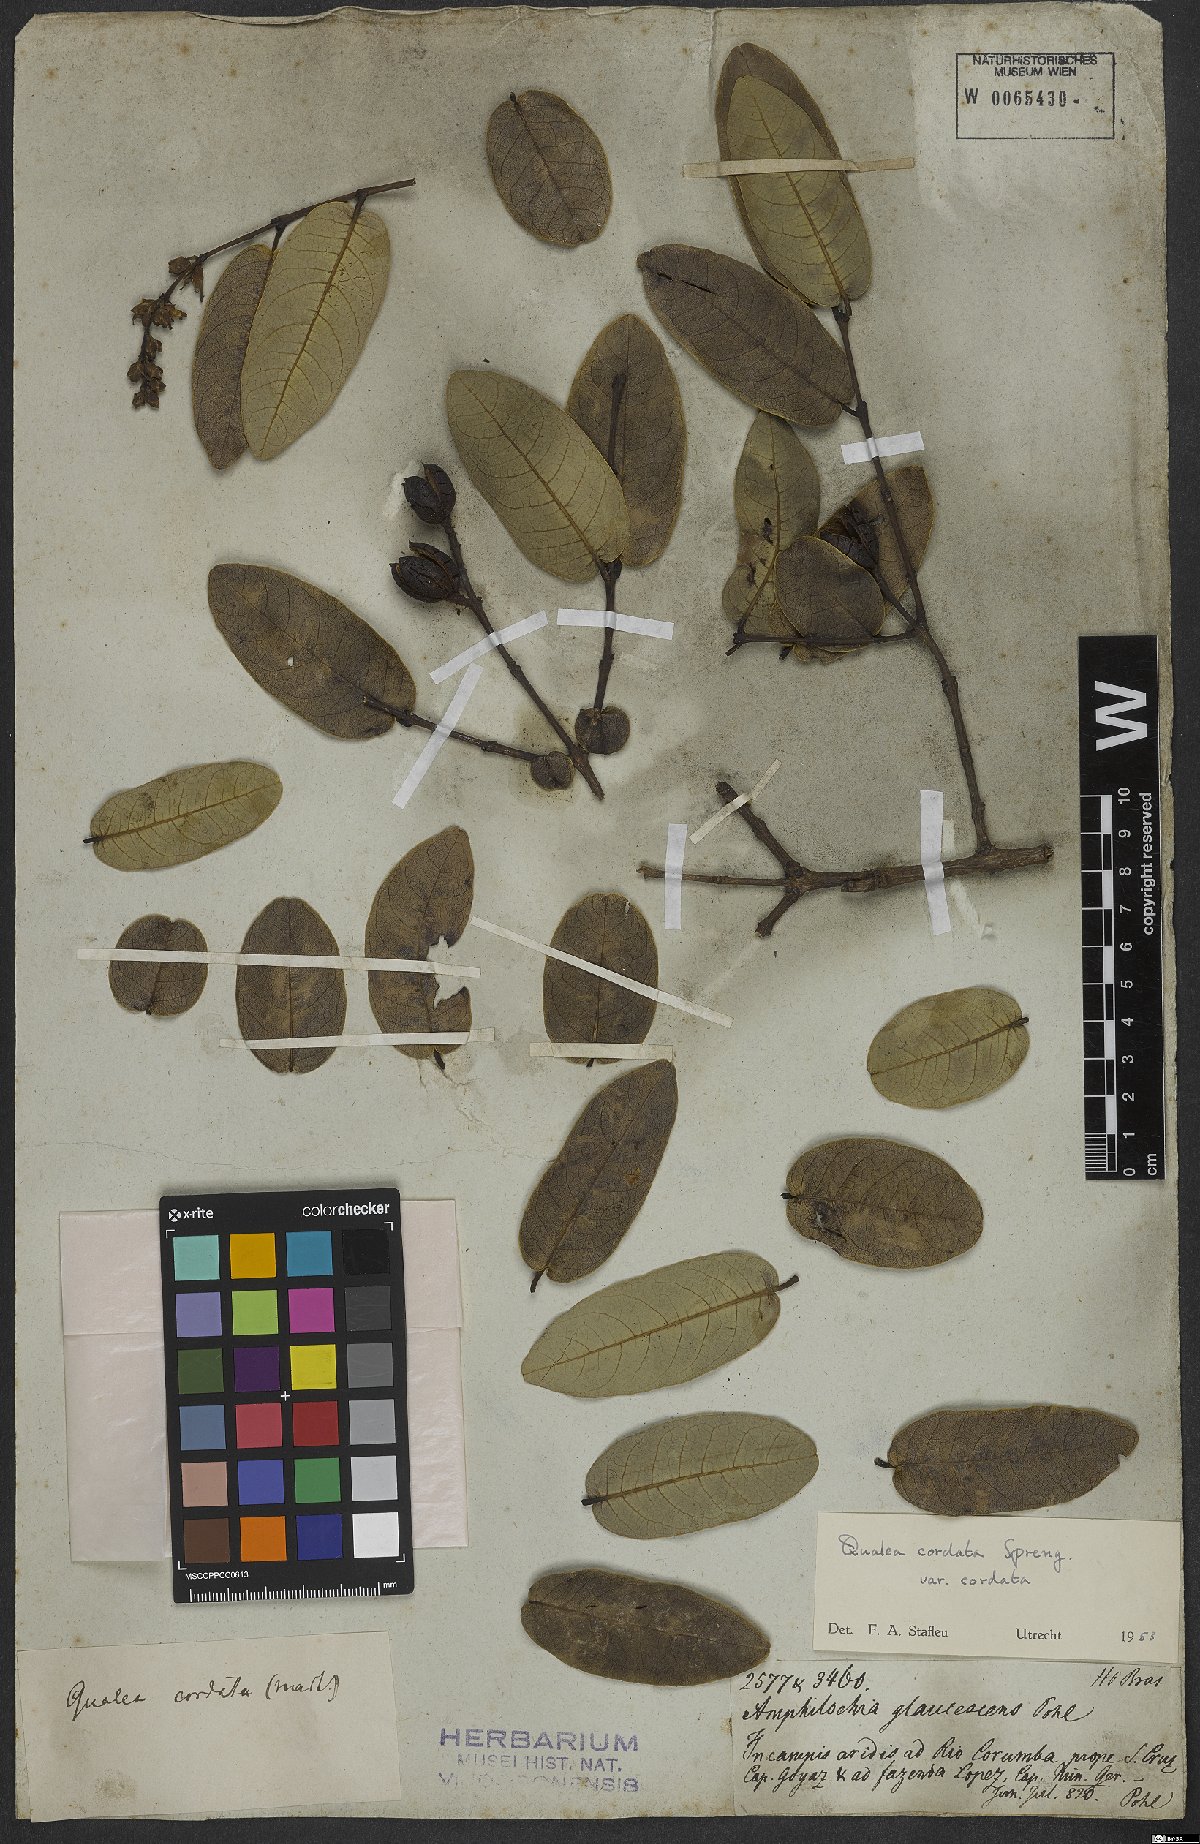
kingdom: Plantae
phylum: Tracheophyta
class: Magnoliopsida
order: Myrtales
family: Vochysiaceae
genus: Qualea
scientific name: Qualea cordata
